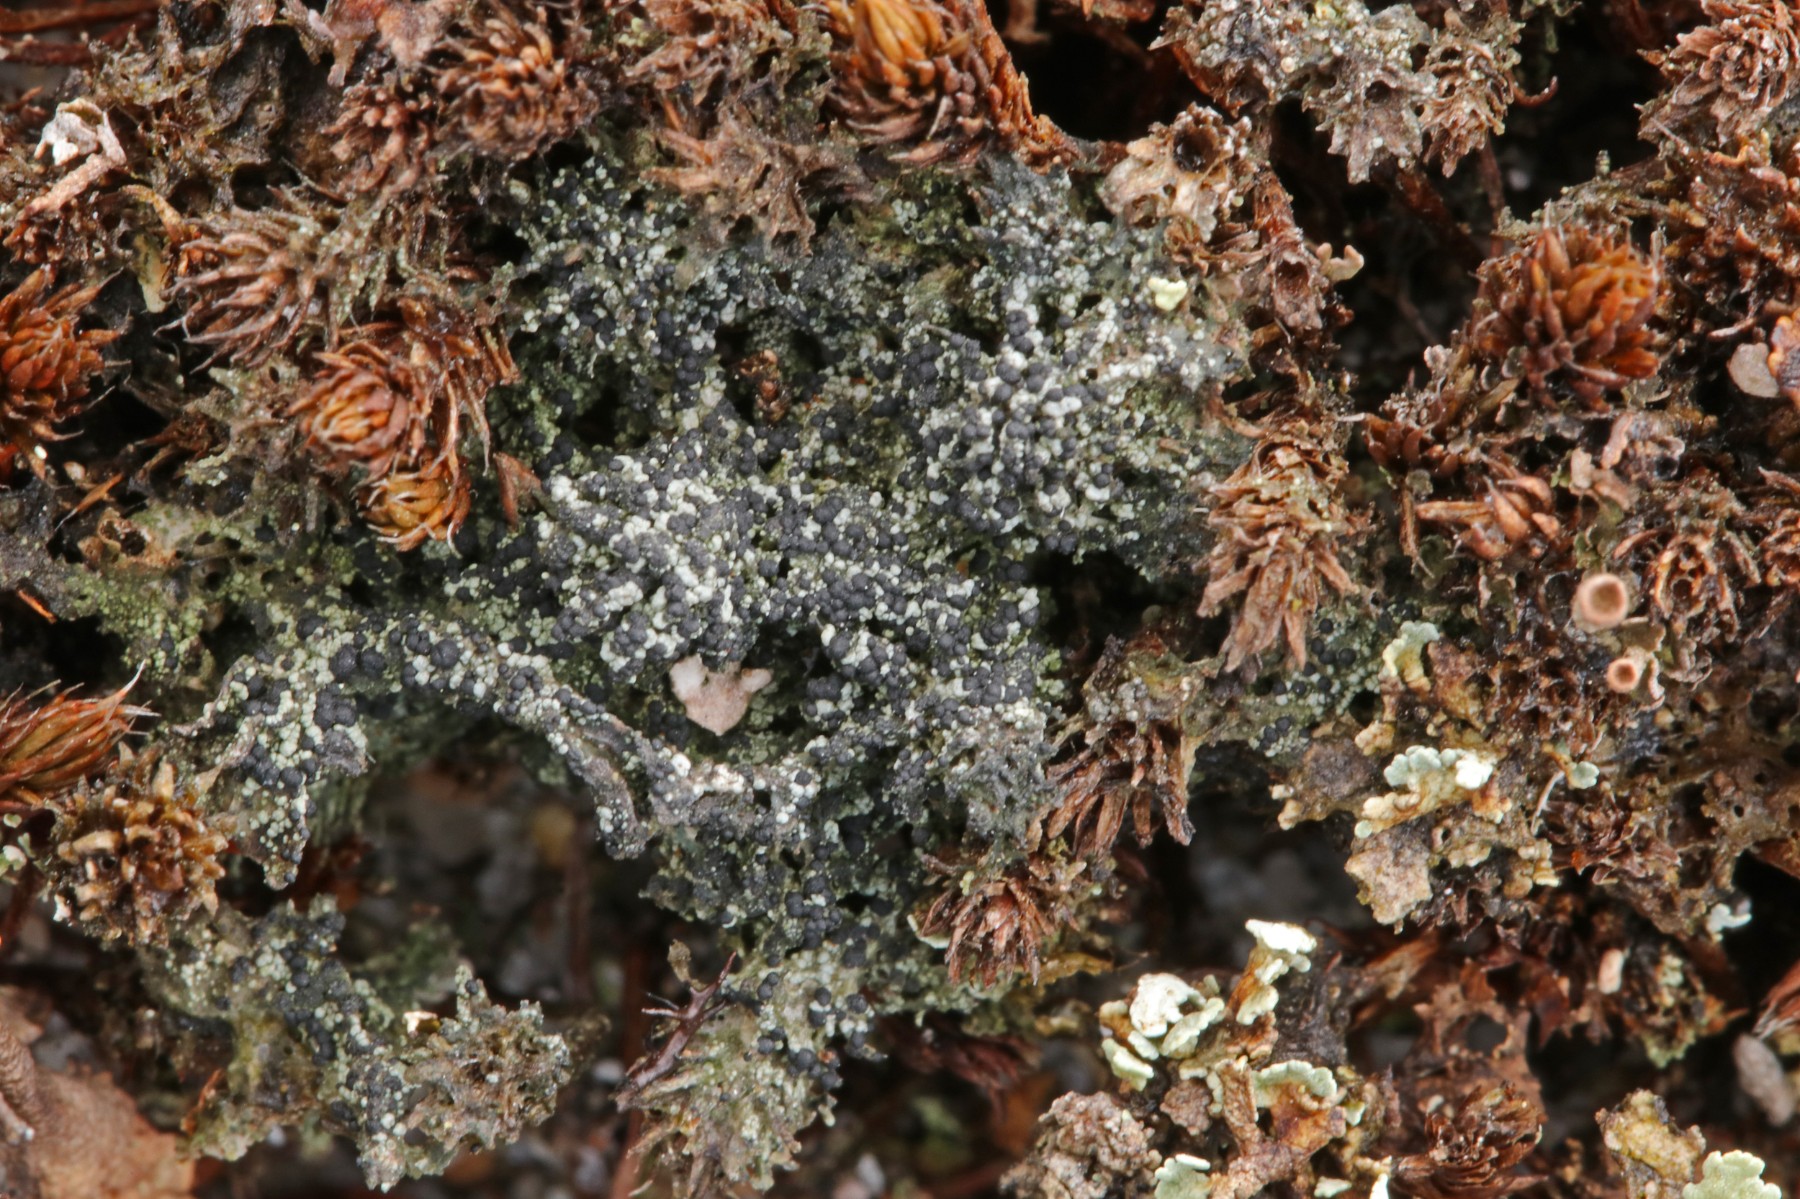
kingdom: Fungi
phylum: Ascomycota
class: Lecanoromycetes
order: Lecanorales
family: Byssolomataceae
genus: Micarea
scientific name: Micarea lignaria
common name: tørve-knaplav
